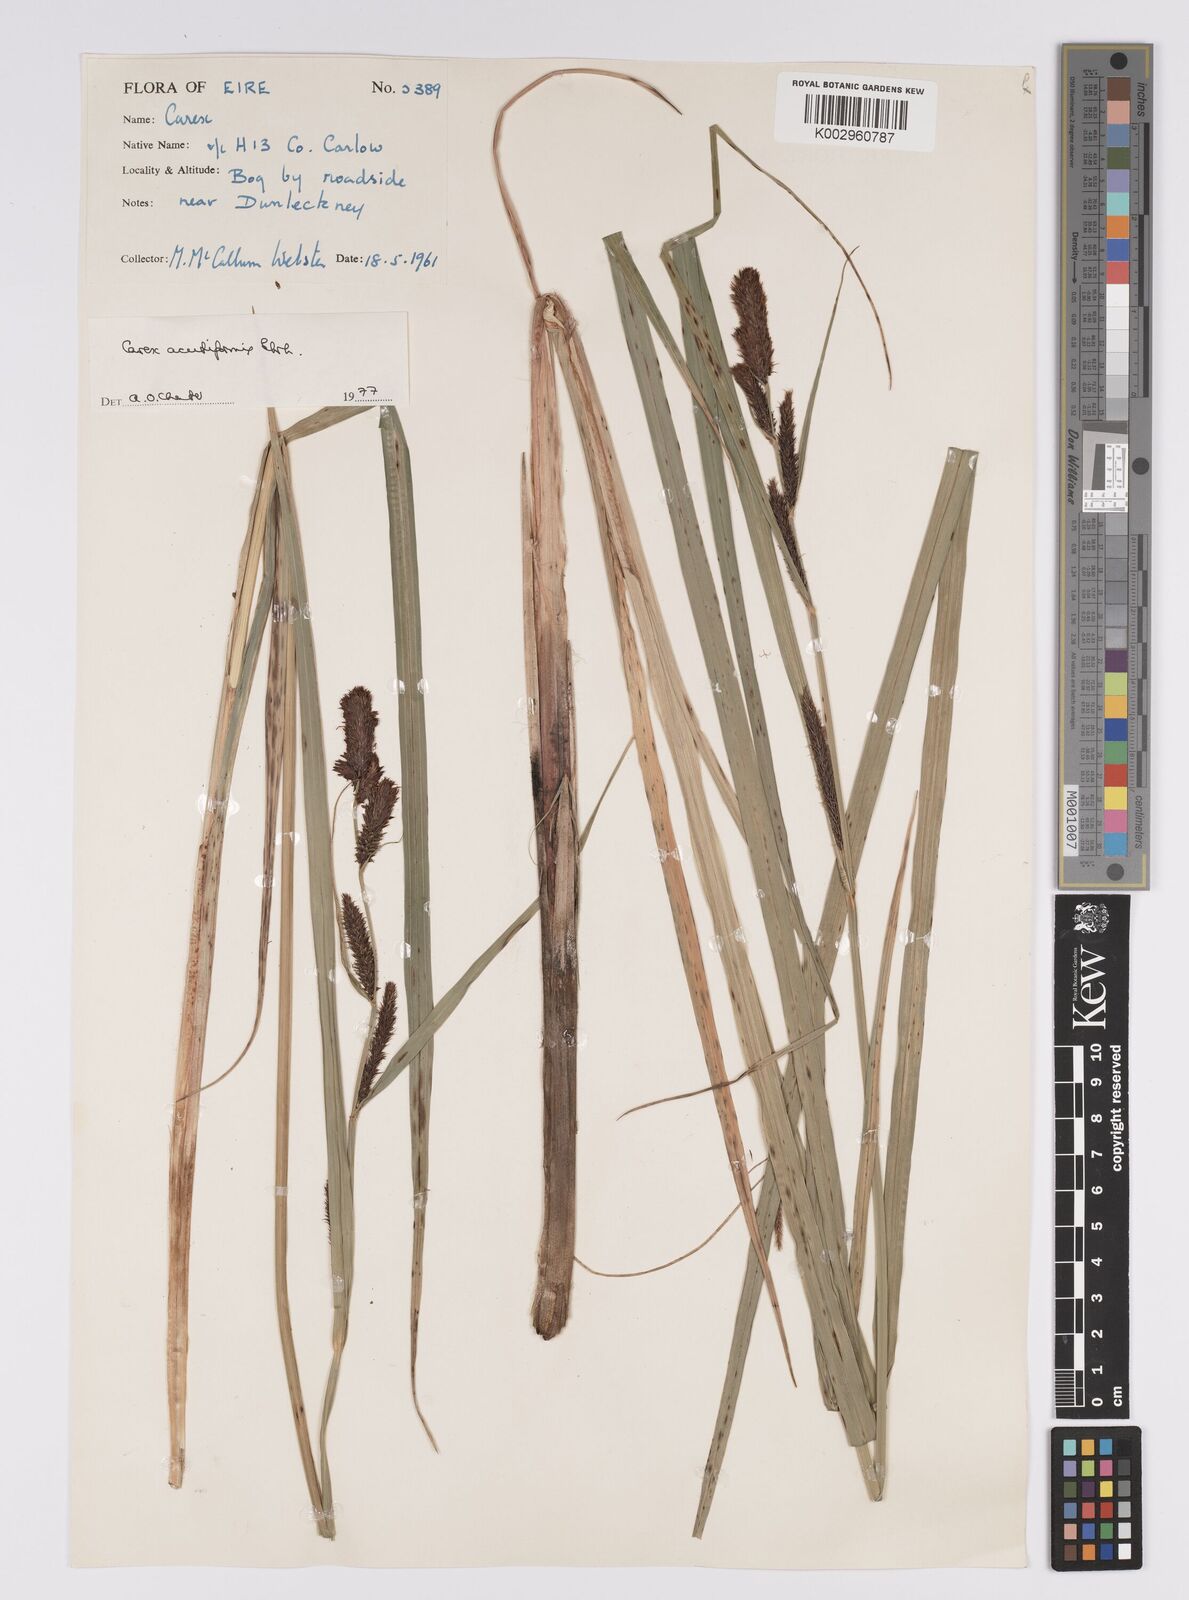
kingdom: Plantae
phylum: Tracheophyta
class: Liliopsida
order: Poales
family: Cyperaceae
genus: Carex
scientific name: Carex acutiformis
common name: Lesser pond-sedge
